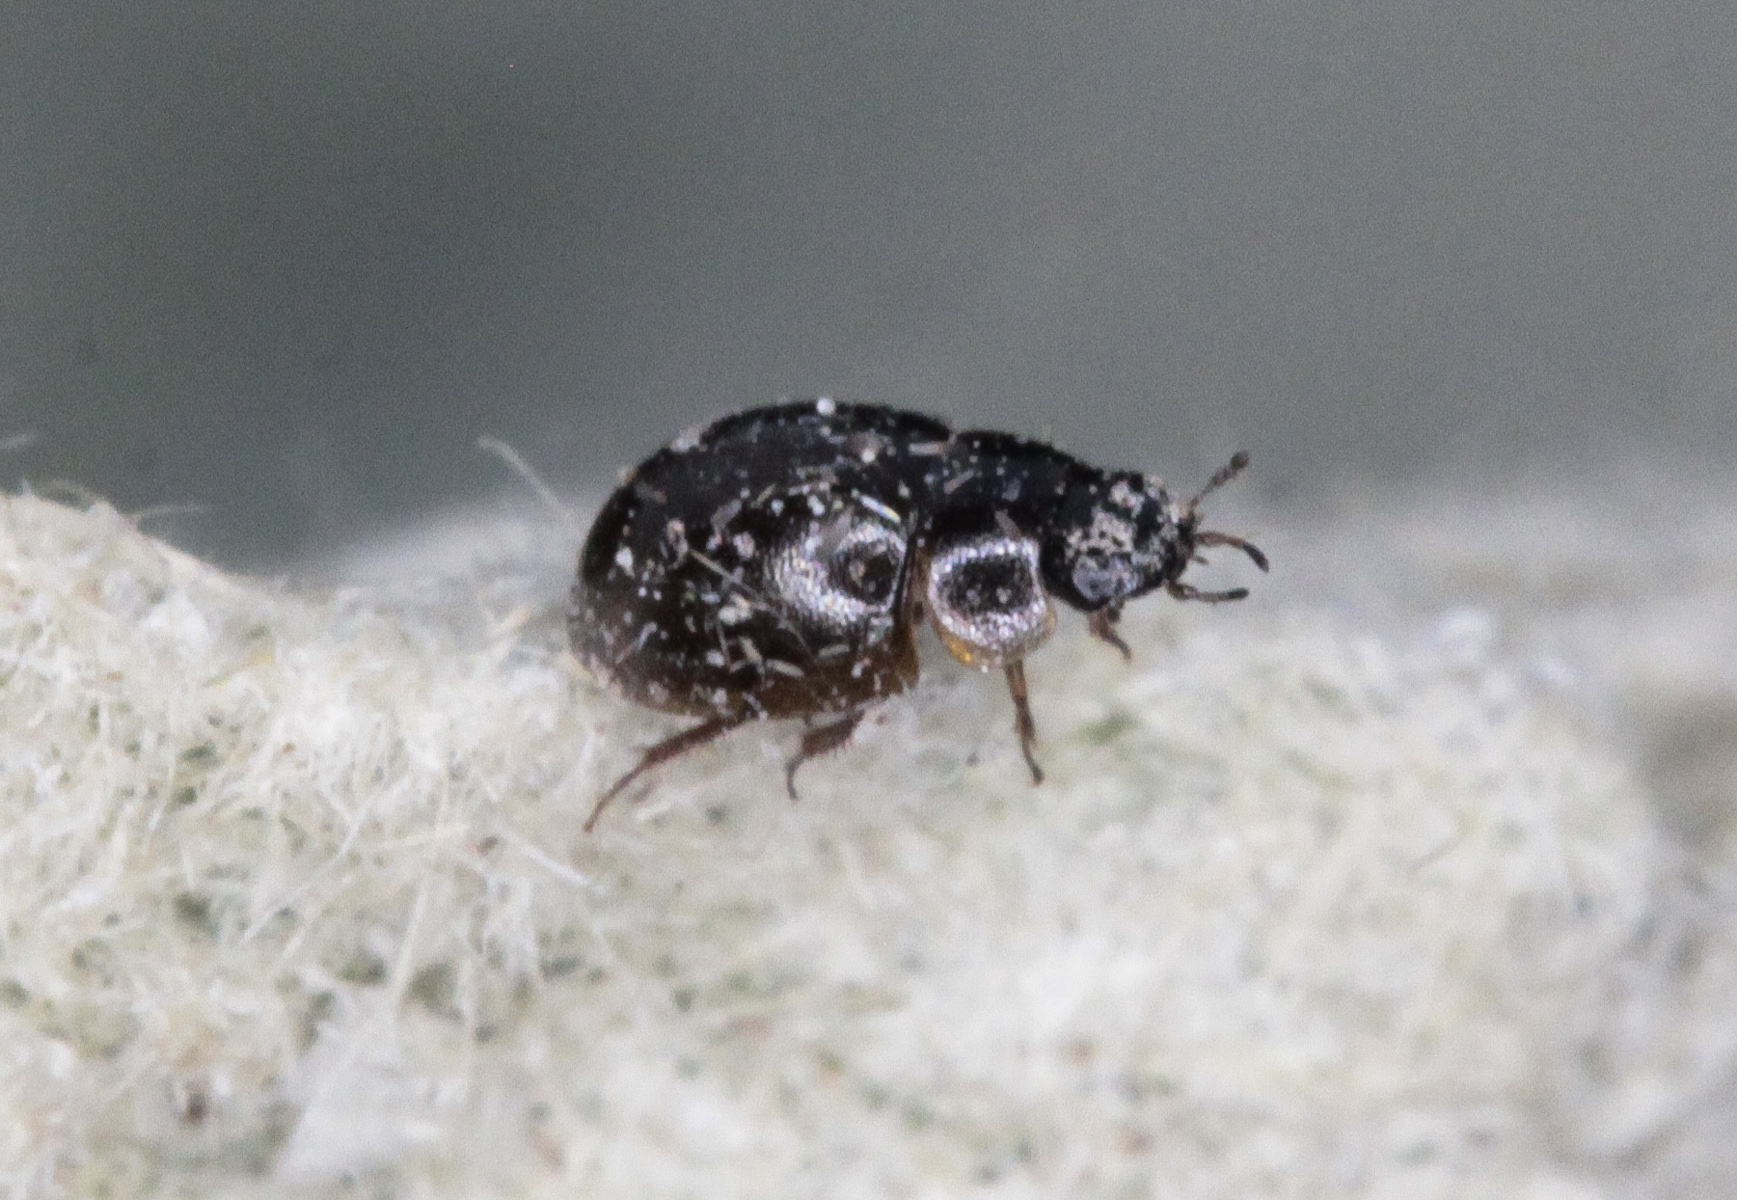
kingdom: Animalia
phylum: Arthropoda
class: Insecta
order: Coleoptera
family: Hydrophilidae
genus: Chaetarthria
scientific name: Chaetarthria seminulum
